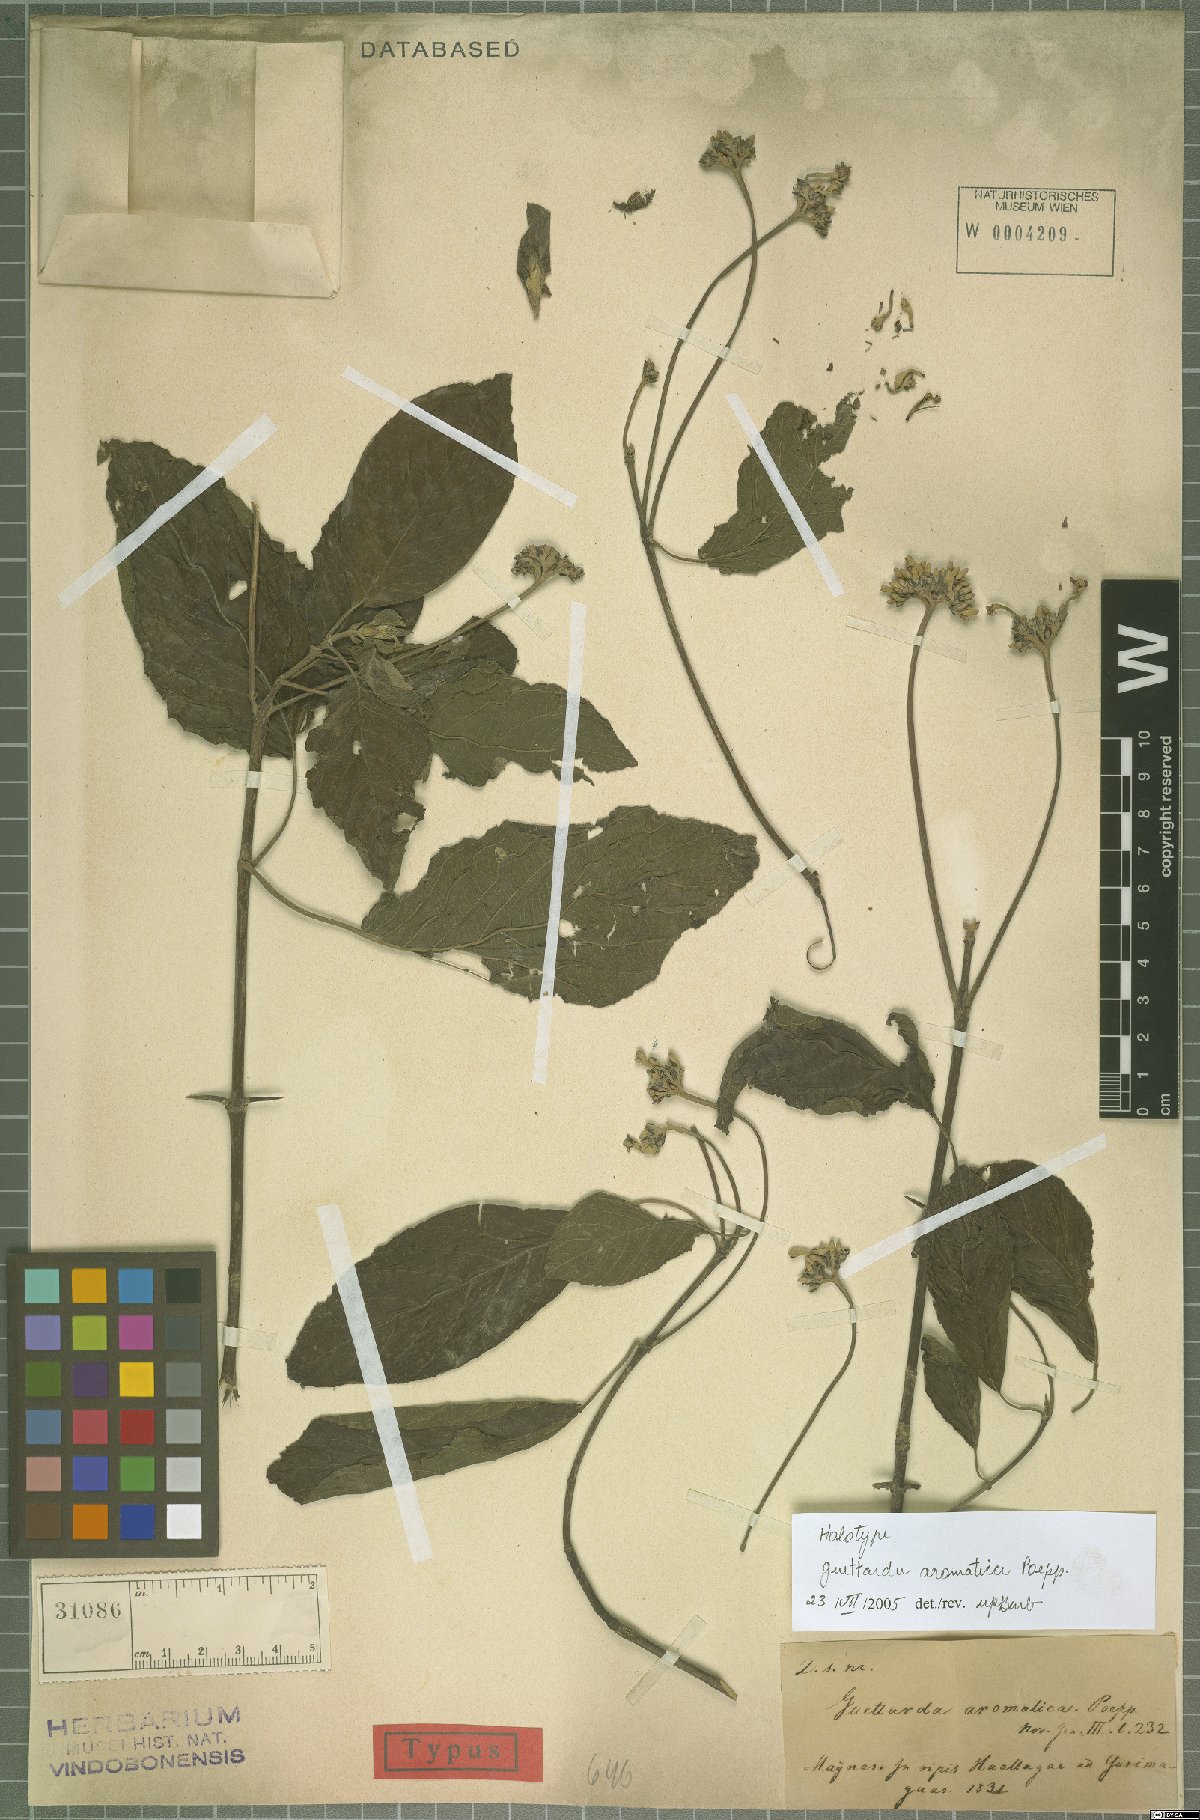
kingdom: Plantae
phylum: Tracheophyta
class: Magnoliopsida
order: Gentianales
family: Rubiaceae
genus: Guettarda
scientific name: Guettarda aromatica
